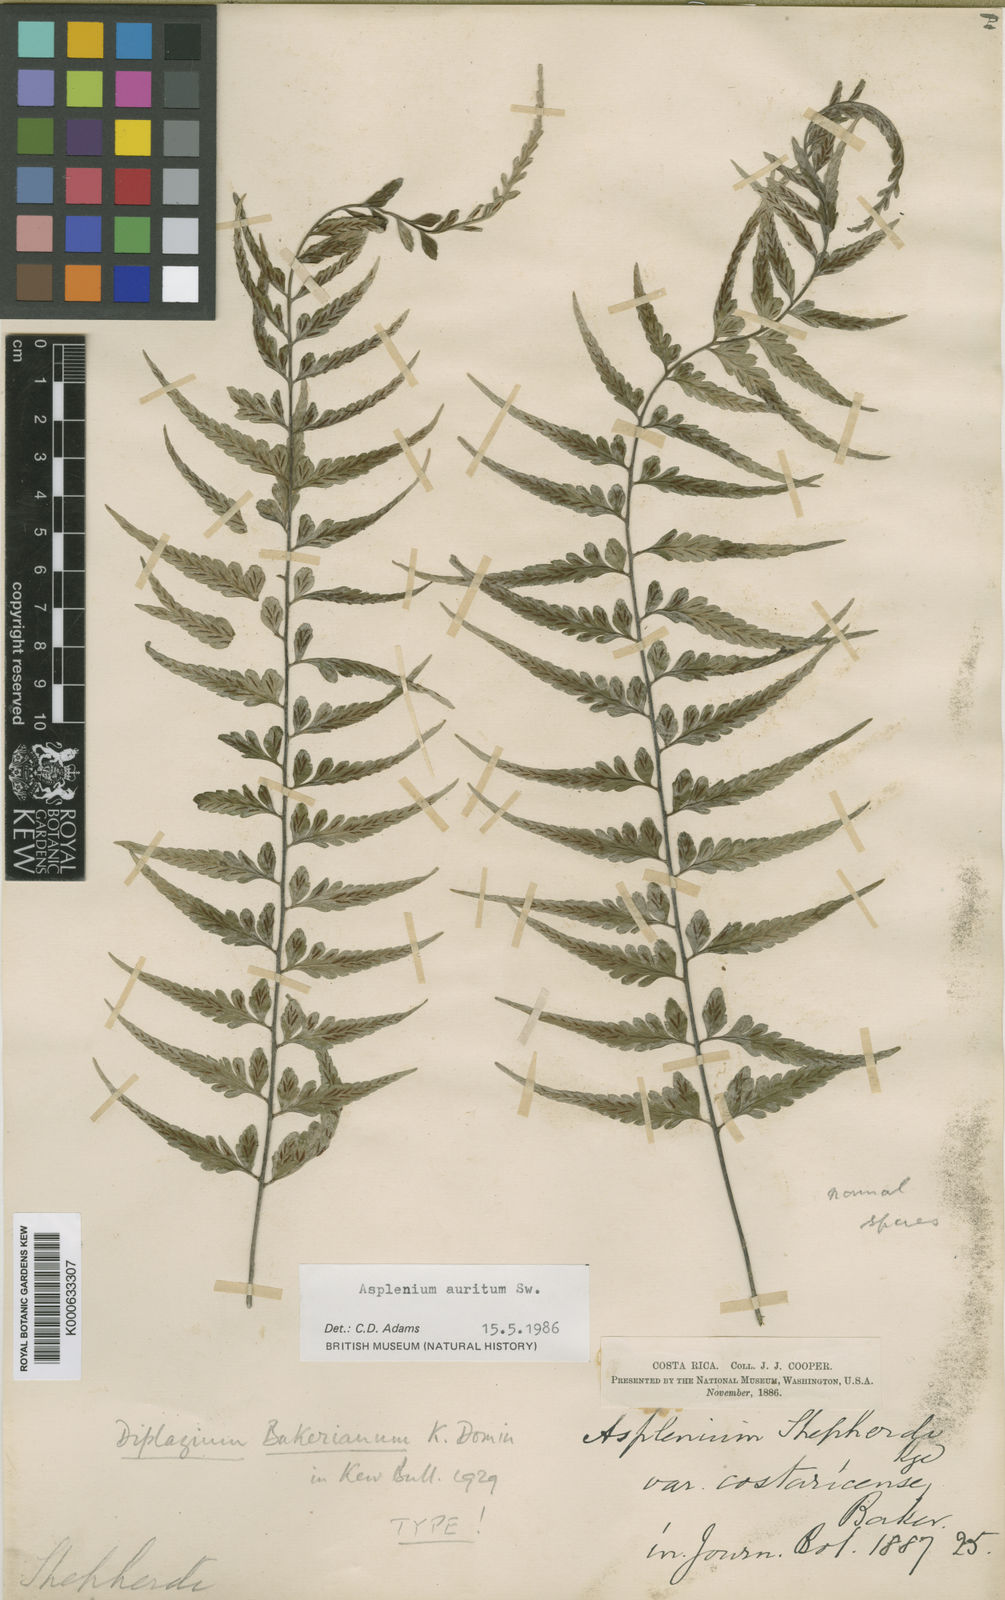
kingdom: Plantae
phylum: Tracheophyta
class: Polypodiopsida
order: Polypodiales
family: Aspleniaceae
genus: Asplenium
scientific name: Asplenium auritum
